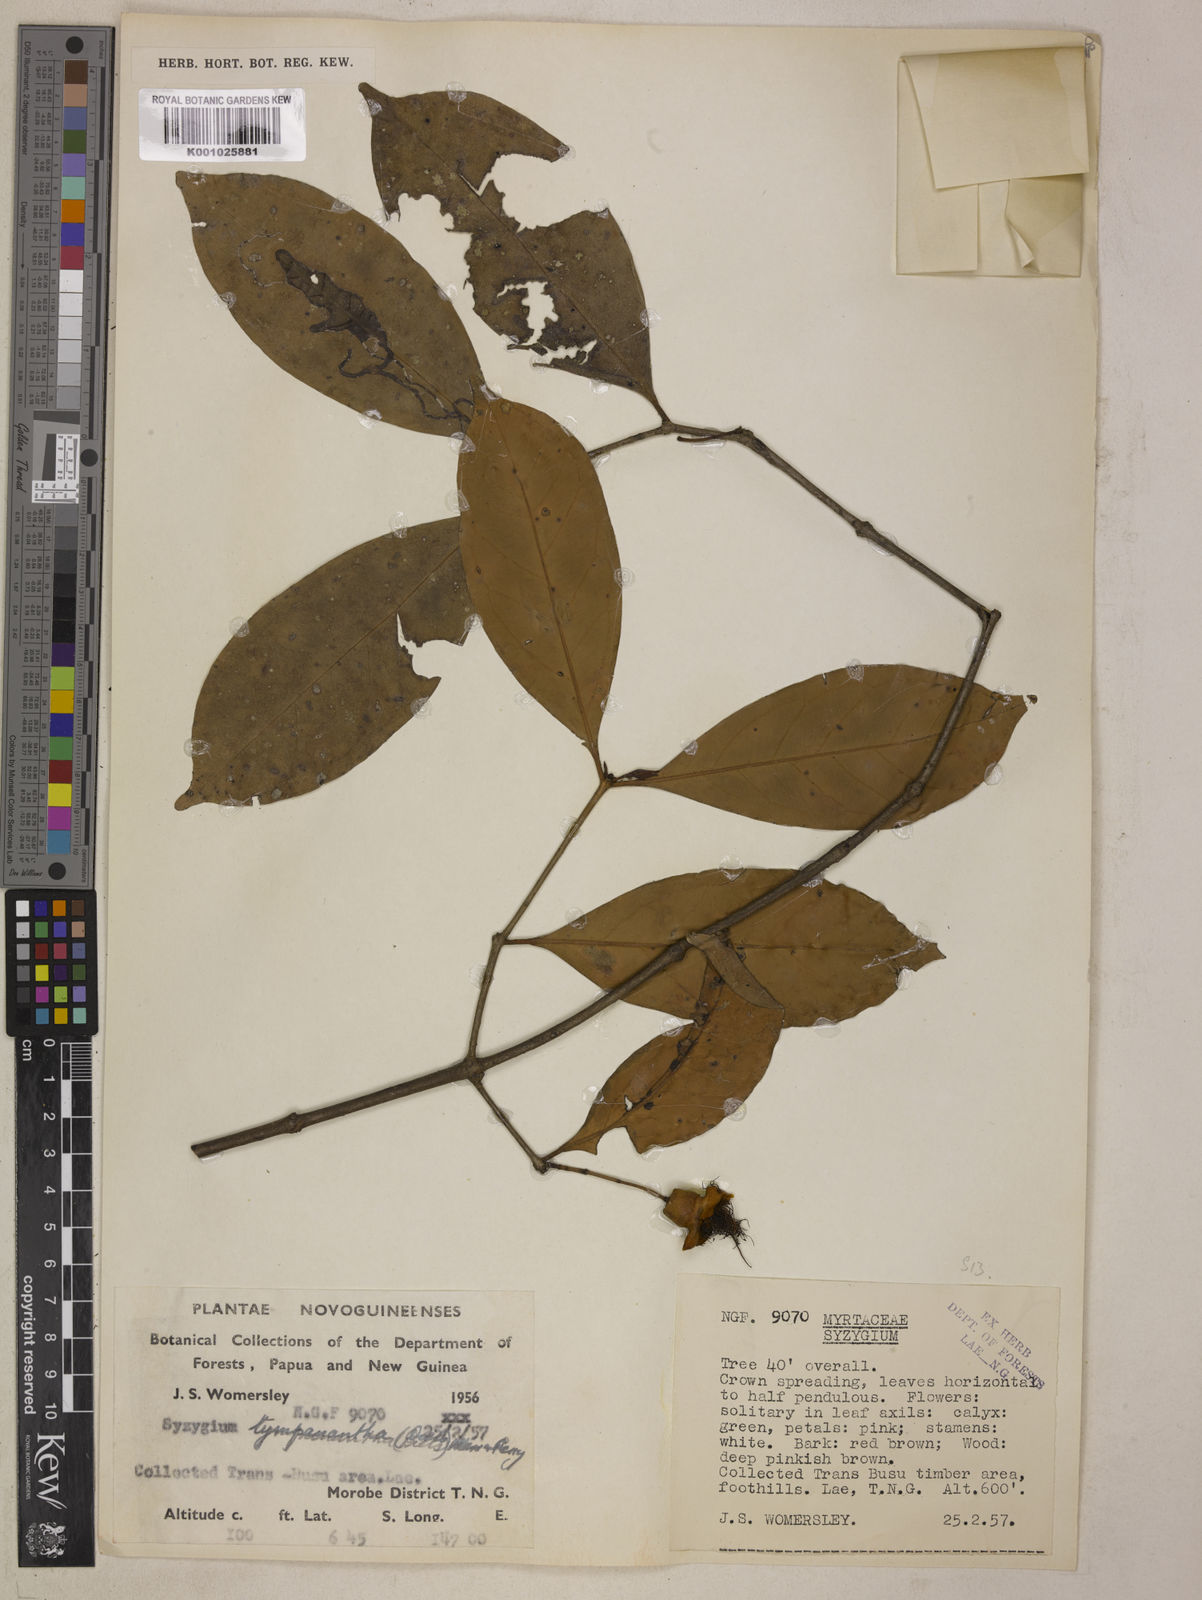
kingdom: Plantae
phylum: Tracheophyta
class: Magnoliopsida
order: Myrtales
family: Myrtaceae
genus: Syzygium
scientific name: Syzygium tympananthum
